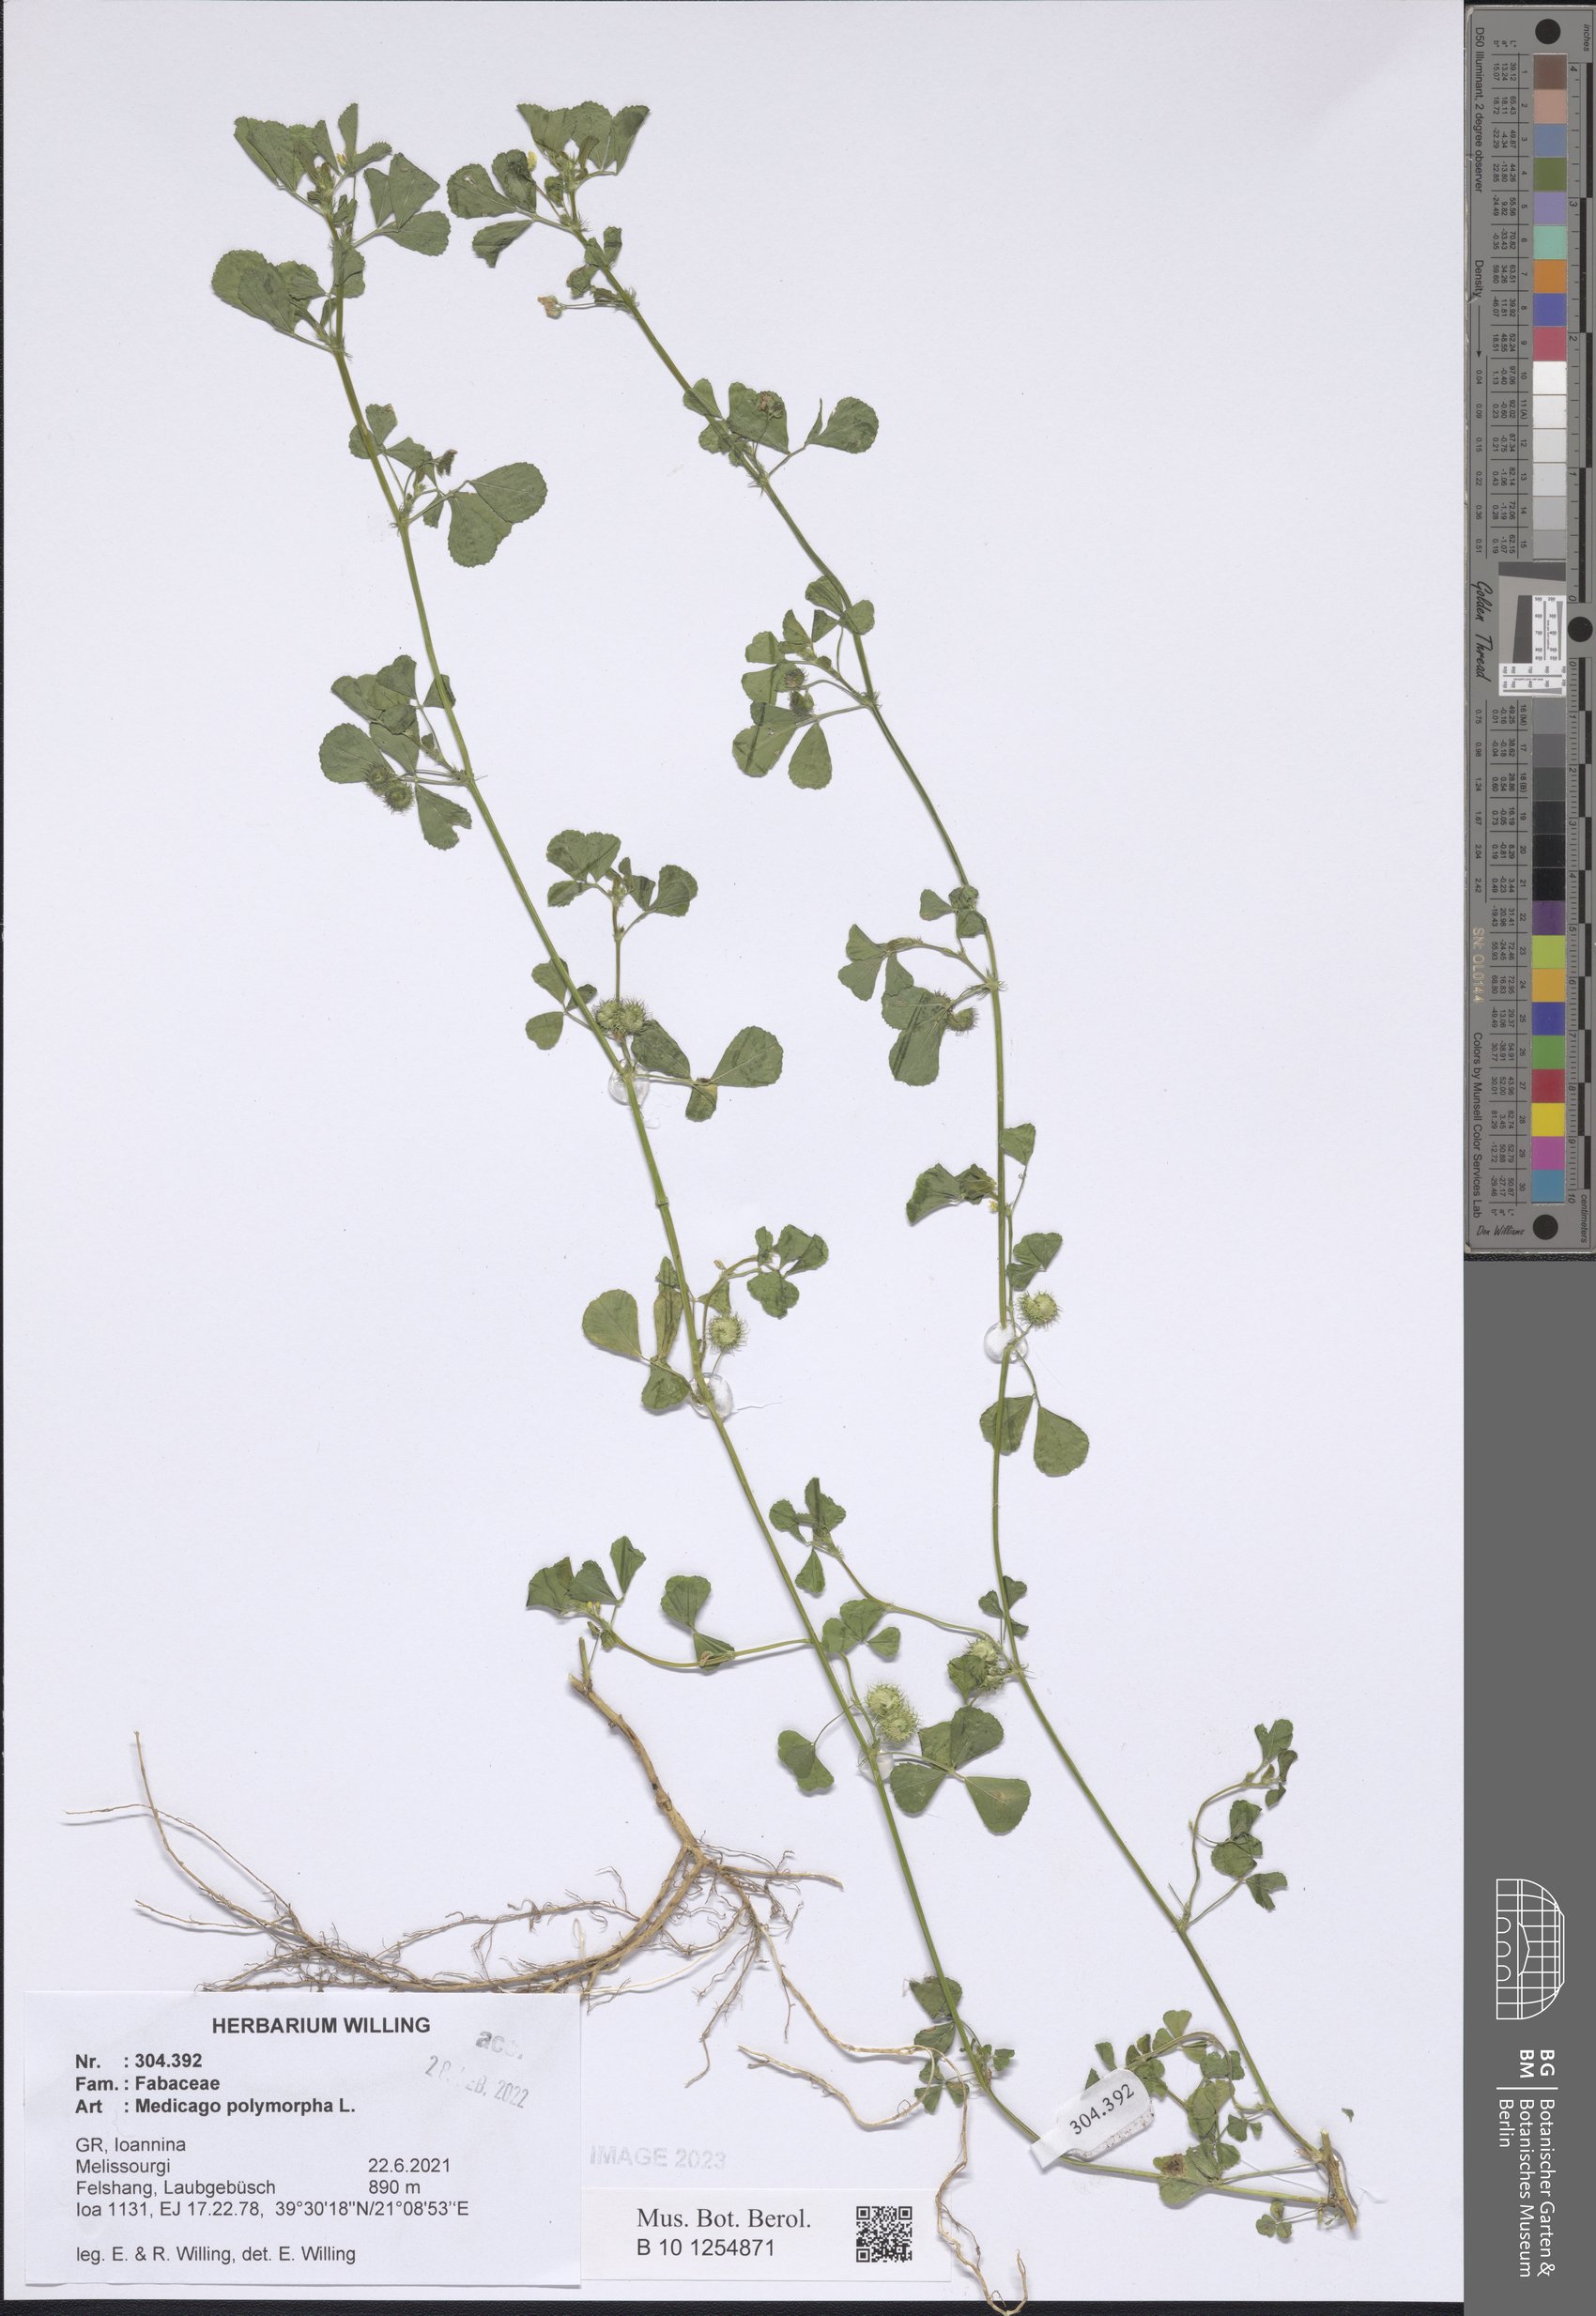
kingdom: Plantae
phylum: Tracheophyta
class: Magnoliopsida
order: Fabales
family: Fabaceae
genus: Medicago
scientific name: Medicago polymorpha
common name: Burclover
